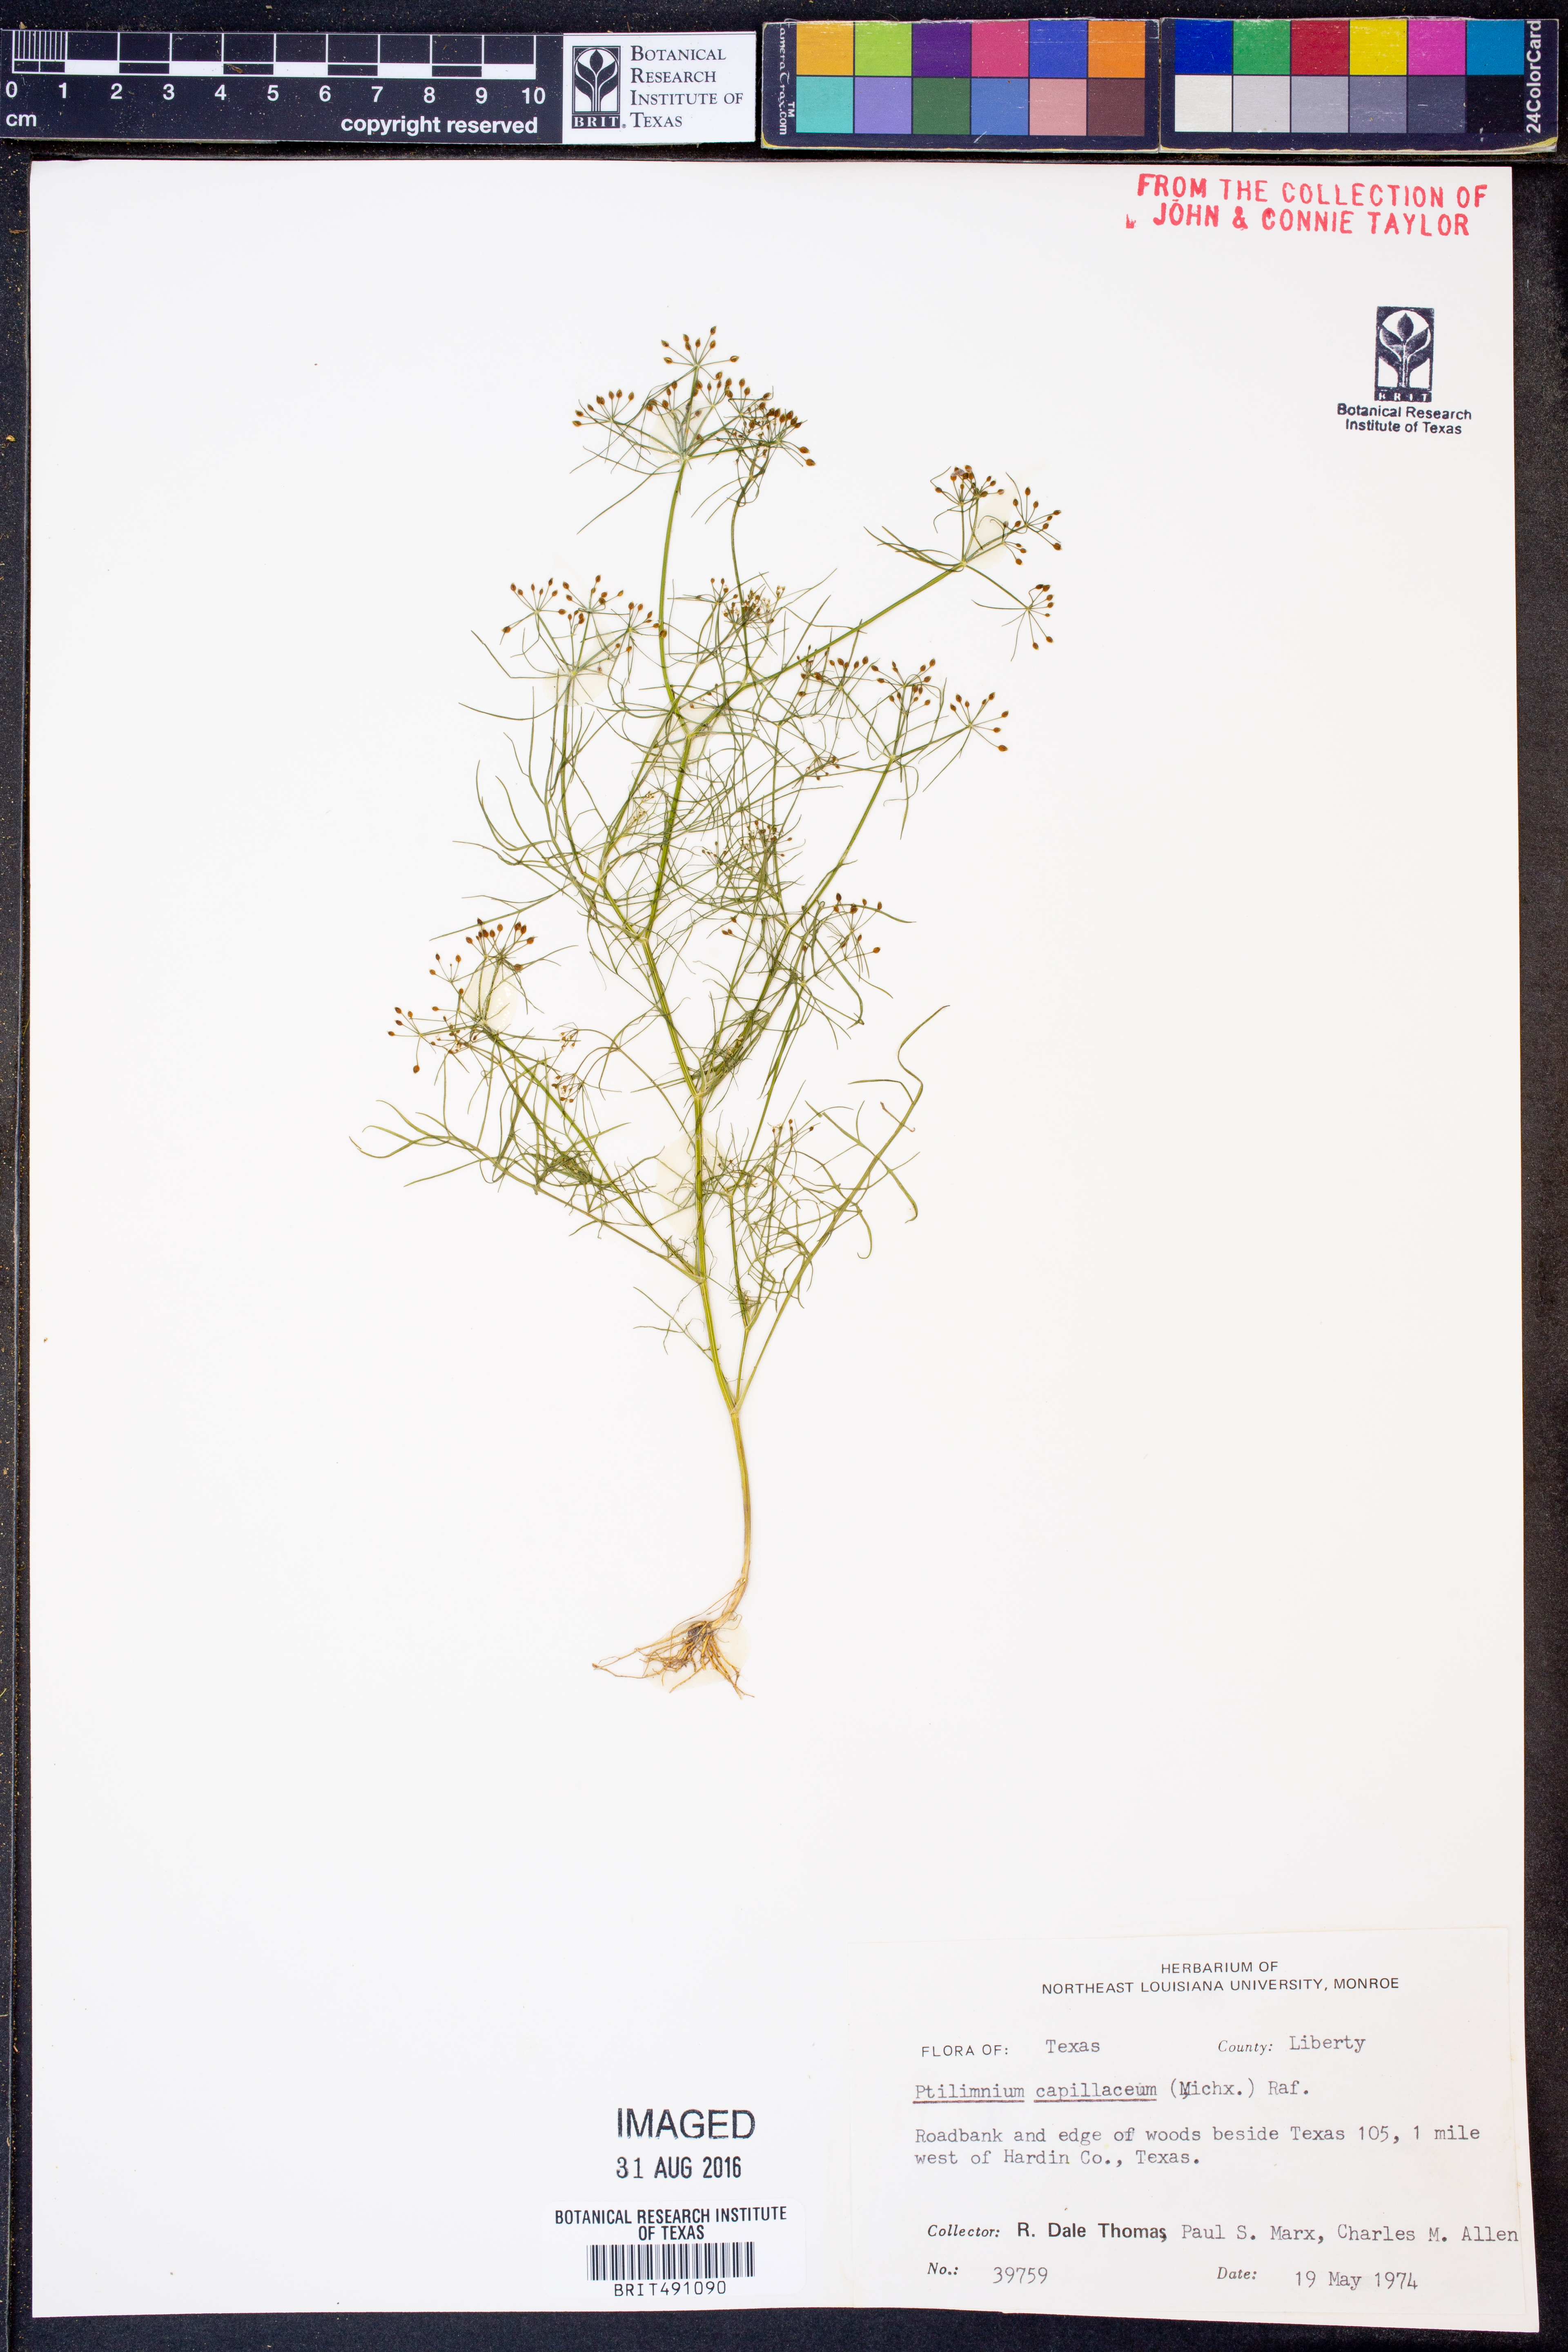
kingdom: Plantae
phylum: Tracheophyta
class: Magnoliopsida
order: Apiales
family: Apiaceae
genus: Ptilimnium
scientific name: Ptilimnium capillaceum
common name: Herbwilliam
